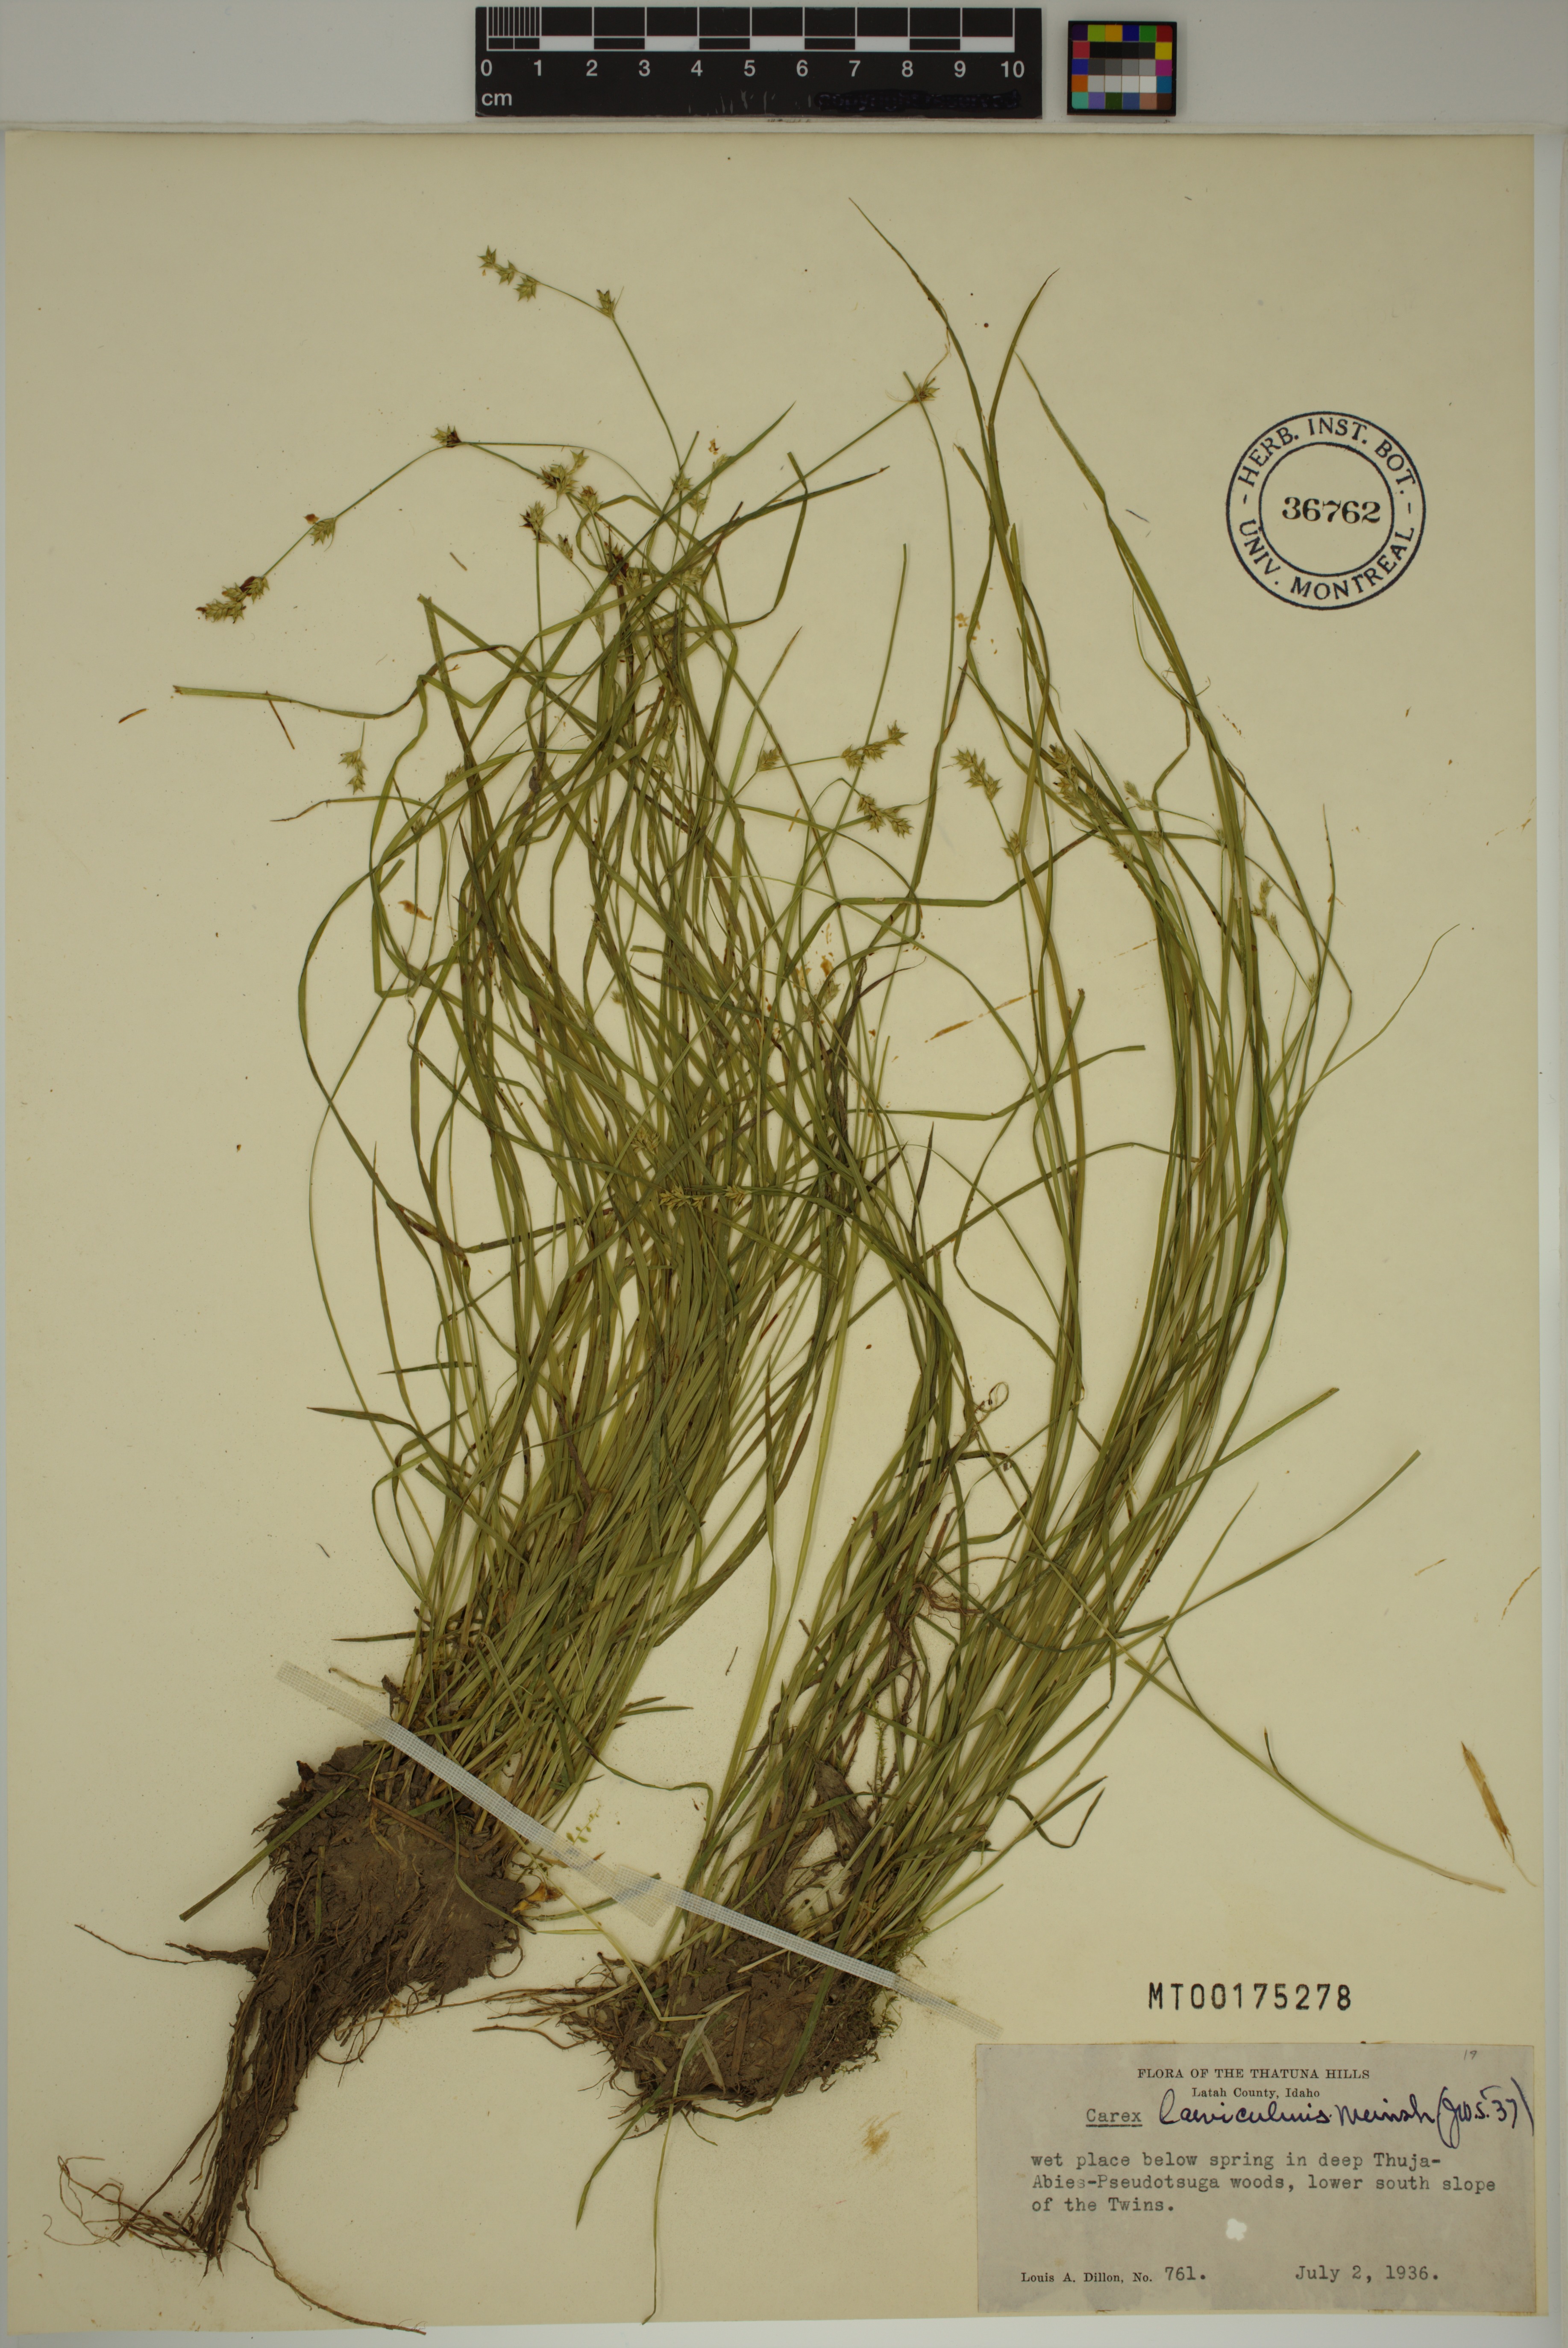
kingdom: Plantae
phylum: Tracheophyta
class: Liliopsida
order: Poales
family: Cyperaceae
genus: Carex
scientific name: Carex laeviculmis
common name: Smooth sedge
